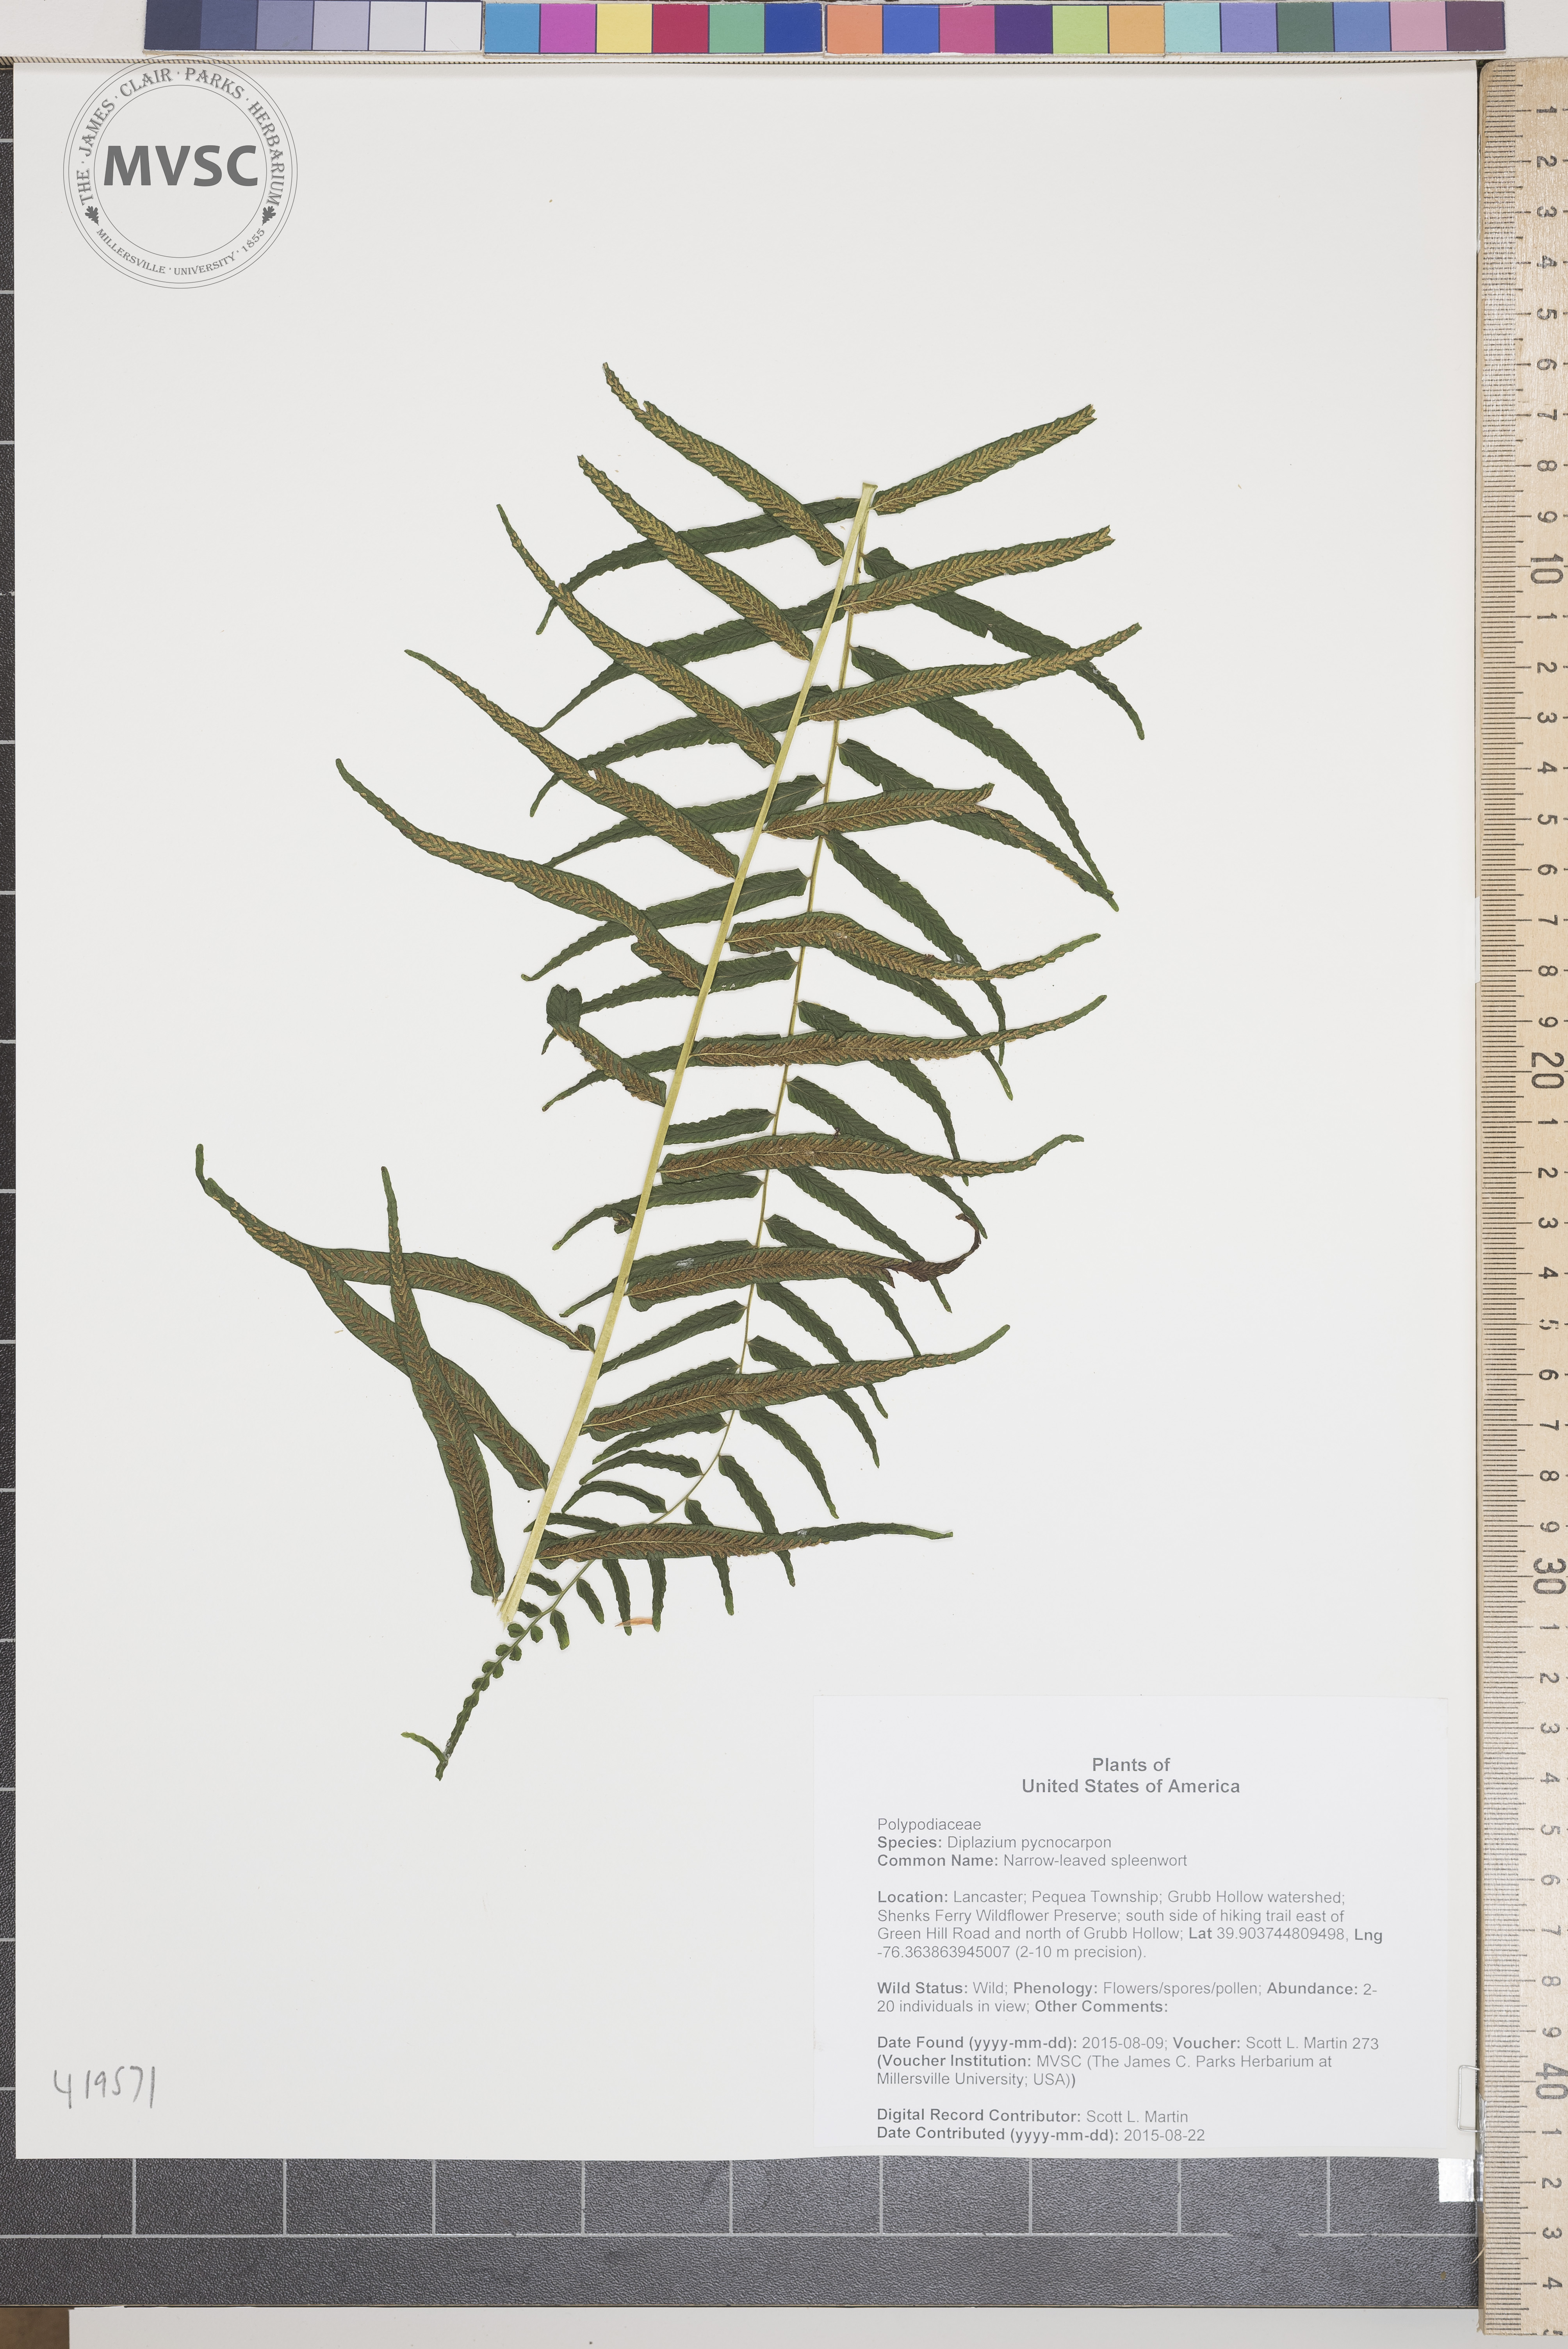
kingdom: Plantae
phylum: Tracheophyta
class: Polypodiopsida
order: Polypodiales
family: Diplaziopsidaceae
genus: Homalosorus
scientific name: Homalosorus pycnocarpos
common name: Narrow-leaved spleenwort
